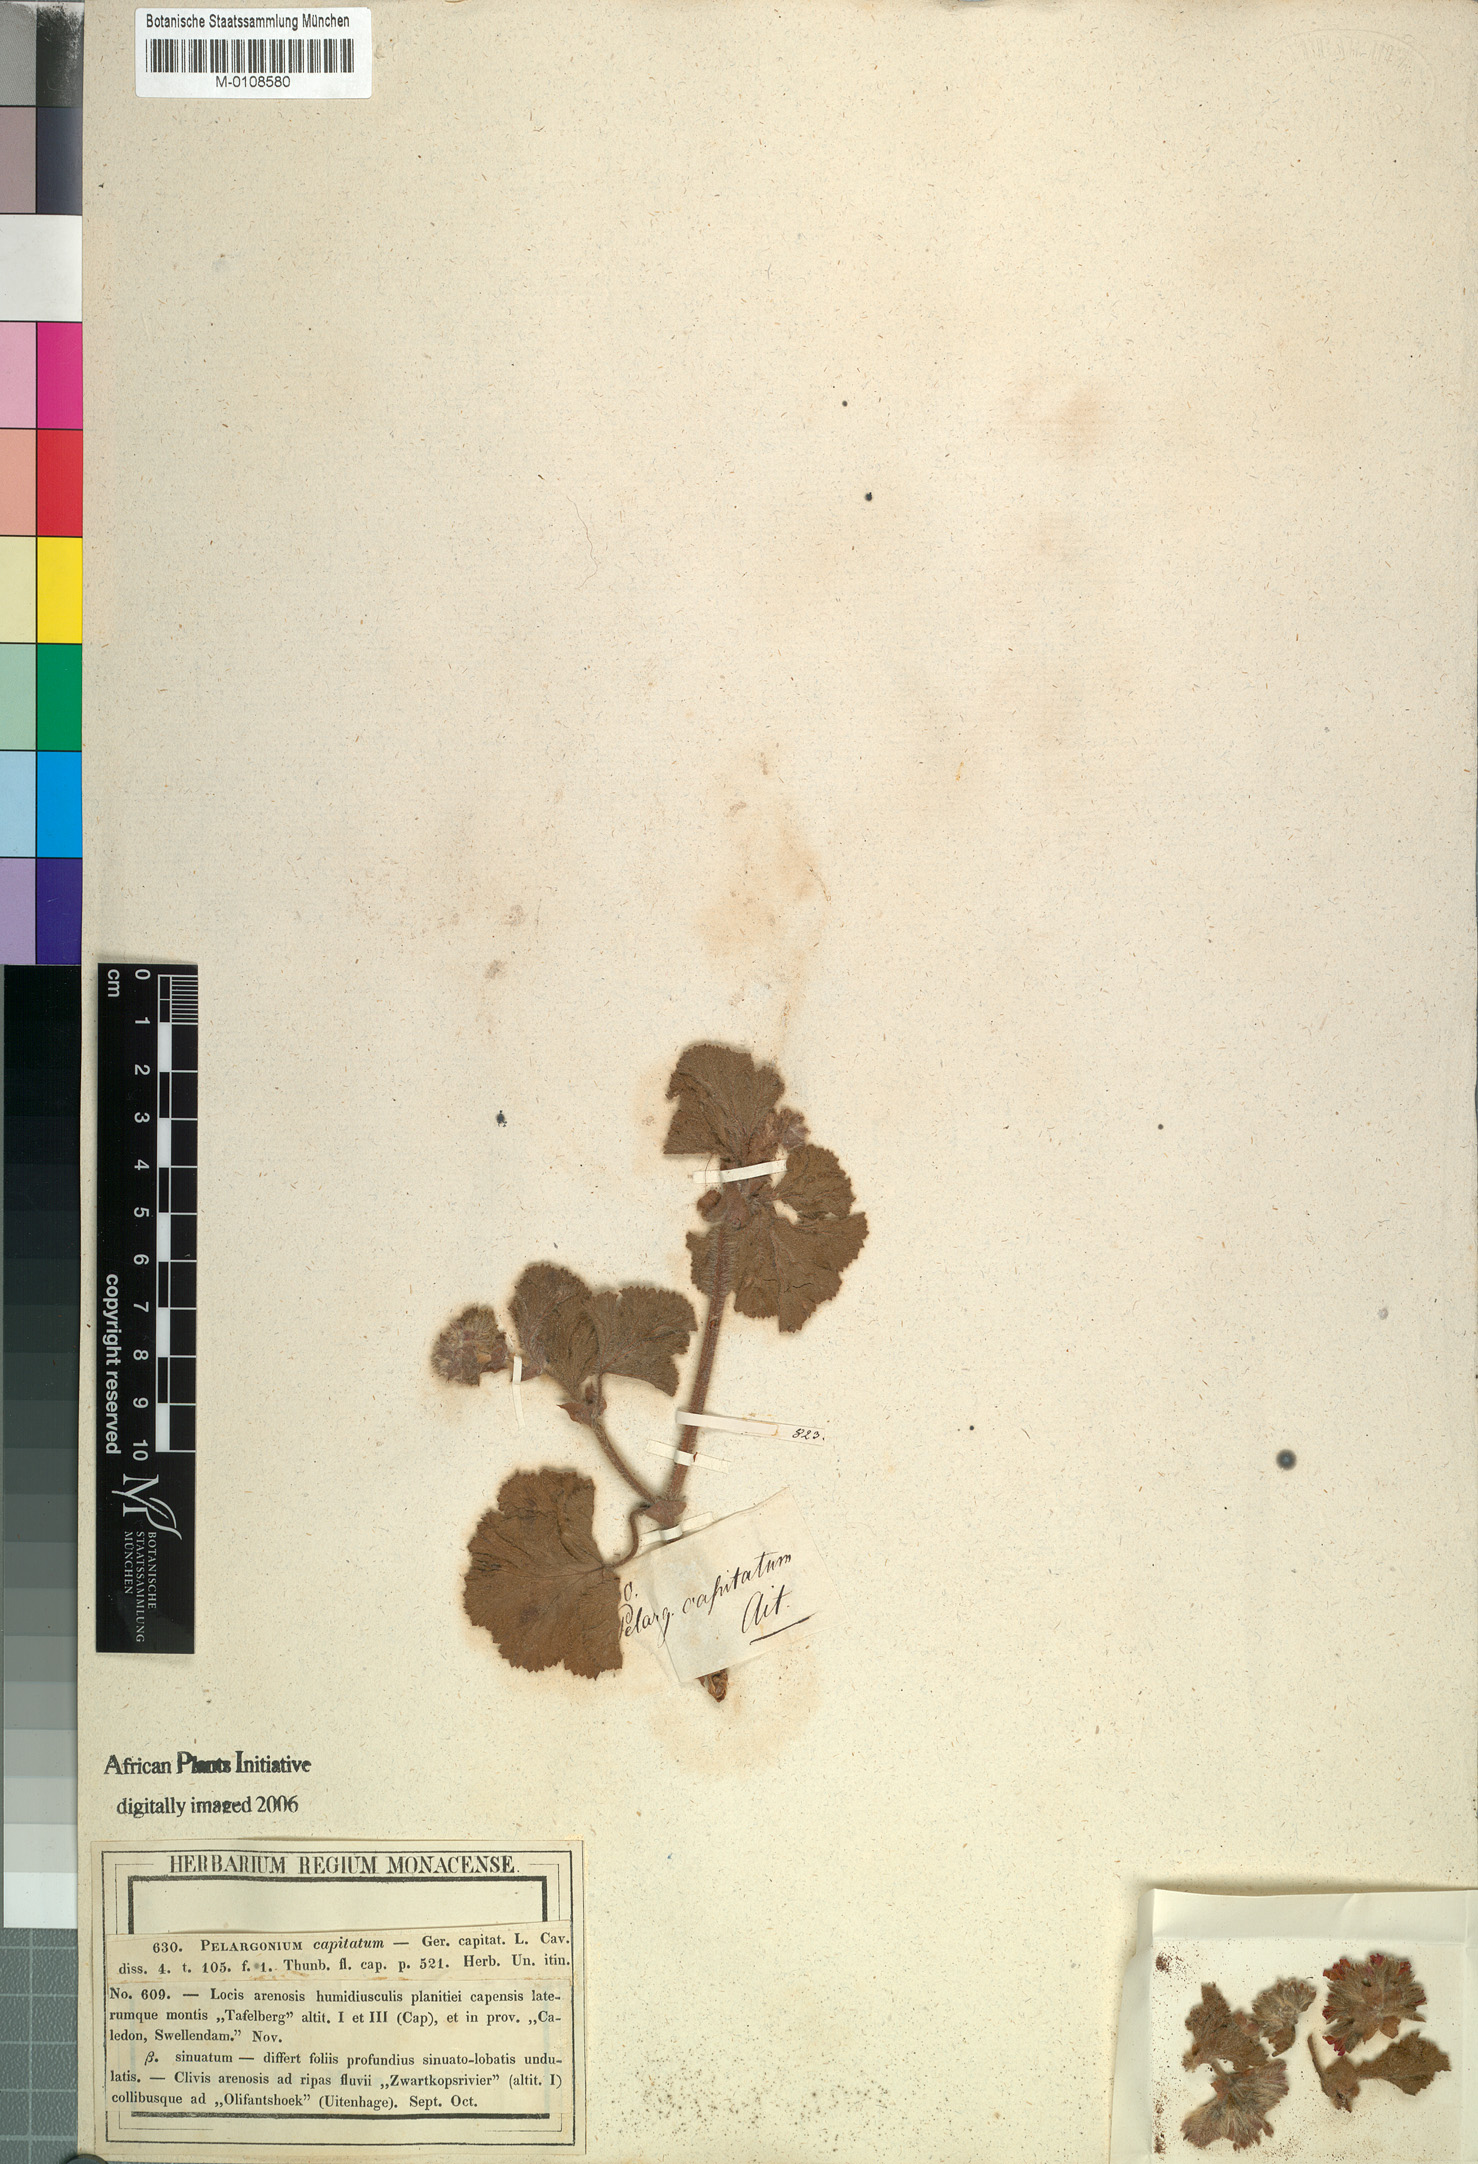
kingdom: Plantae
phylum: Tracheophyta
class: Magnoliopsida
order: Geraniales
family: Geraniaceae
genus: Pelargonium
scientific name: Pelargonium capitatum
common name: Rose scented geranium
